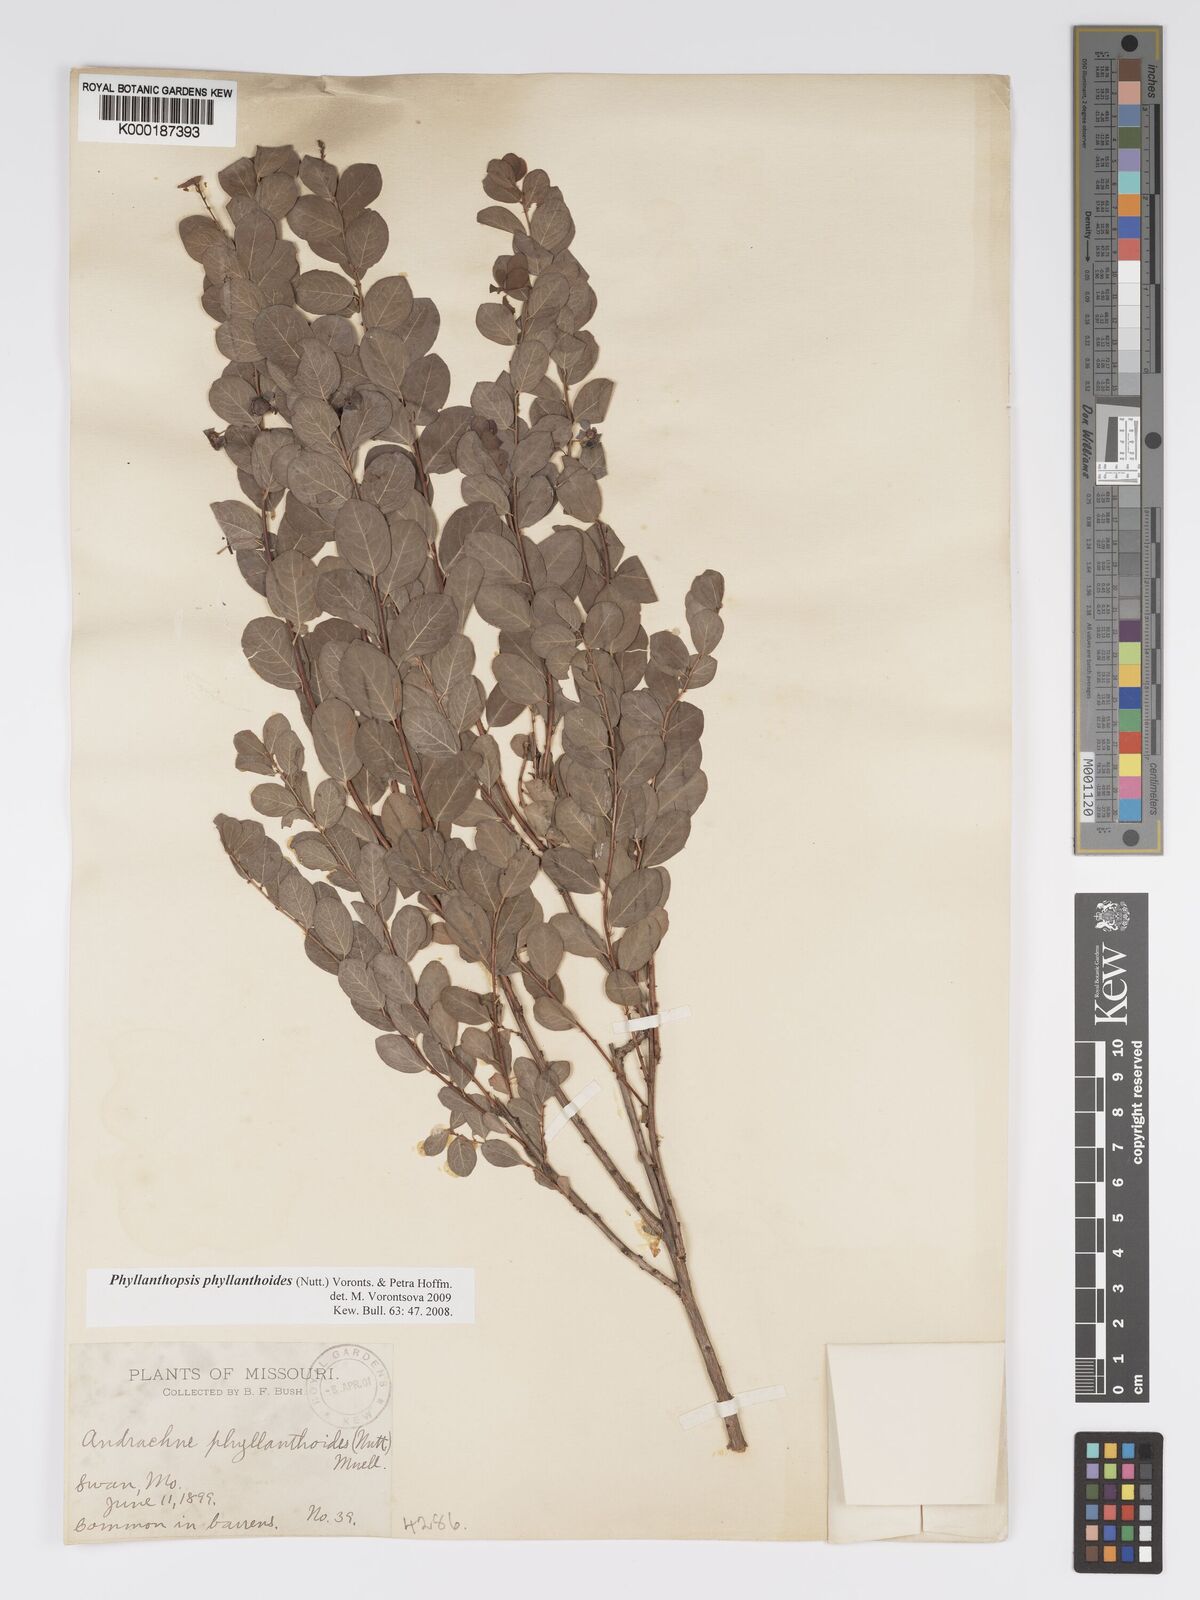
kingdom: Plantae
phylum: Tracheophyta
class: Magnoliopsida
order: Malpighiales
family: Phyllanthaceae
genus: Andrachne
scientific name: Andrachne
